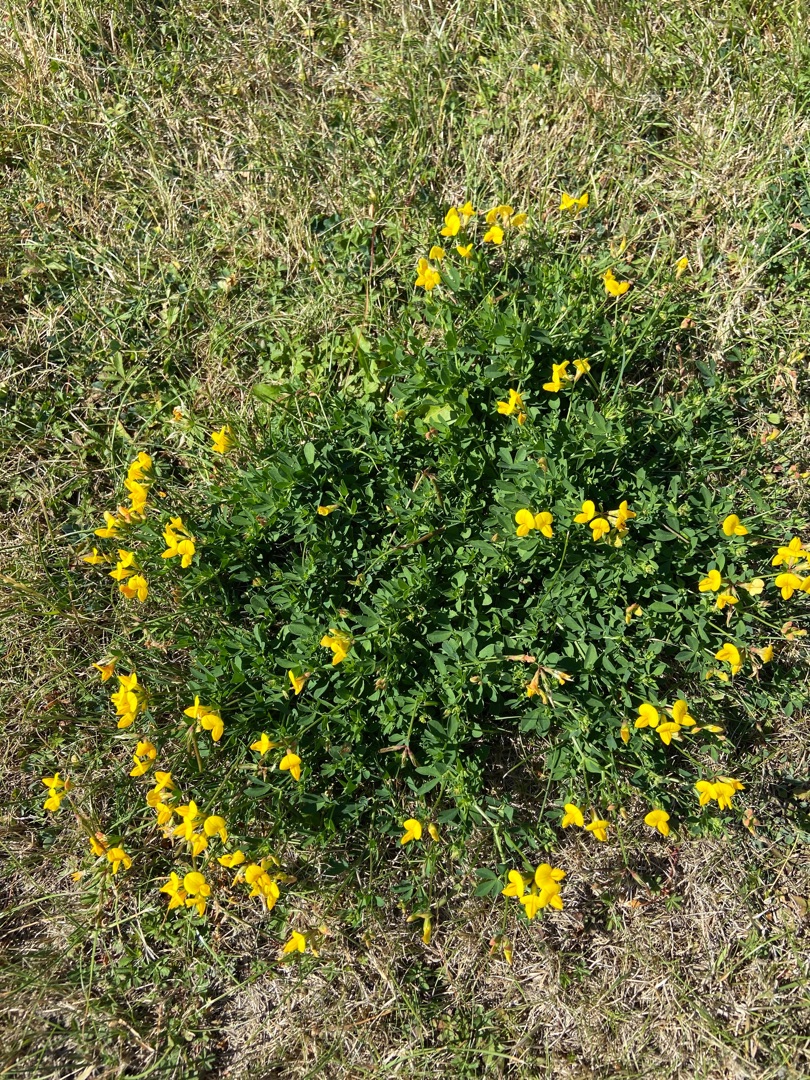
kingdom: Plantae
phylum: Tracheophyta
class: Magnoliopsida
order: Fabales
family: Fabaceae
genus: Lotus
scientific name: Lotus corniculatus
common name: Almindelig kællingetand
